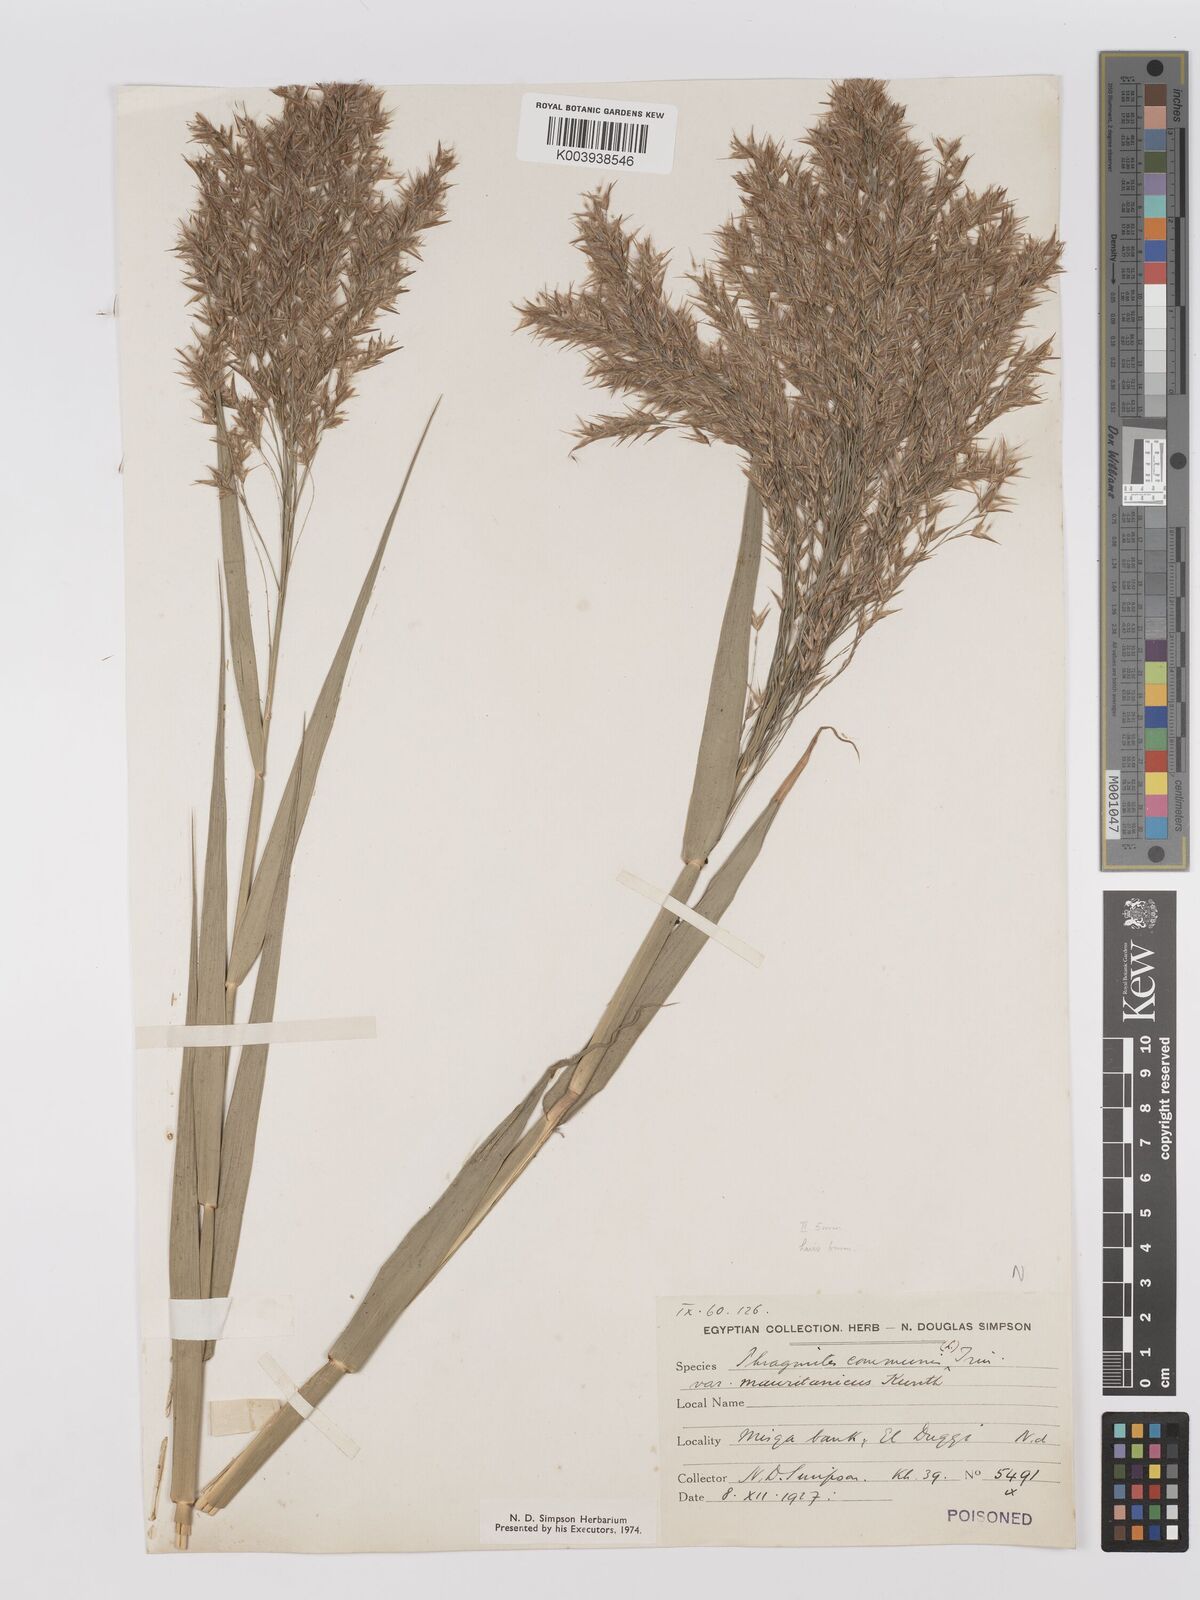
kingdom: Plantae
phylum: Tracheophyta
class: Liliopsida
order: Poales
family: Poaceae
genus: Phragmites
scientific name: Phragmites australis
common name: Common reed
